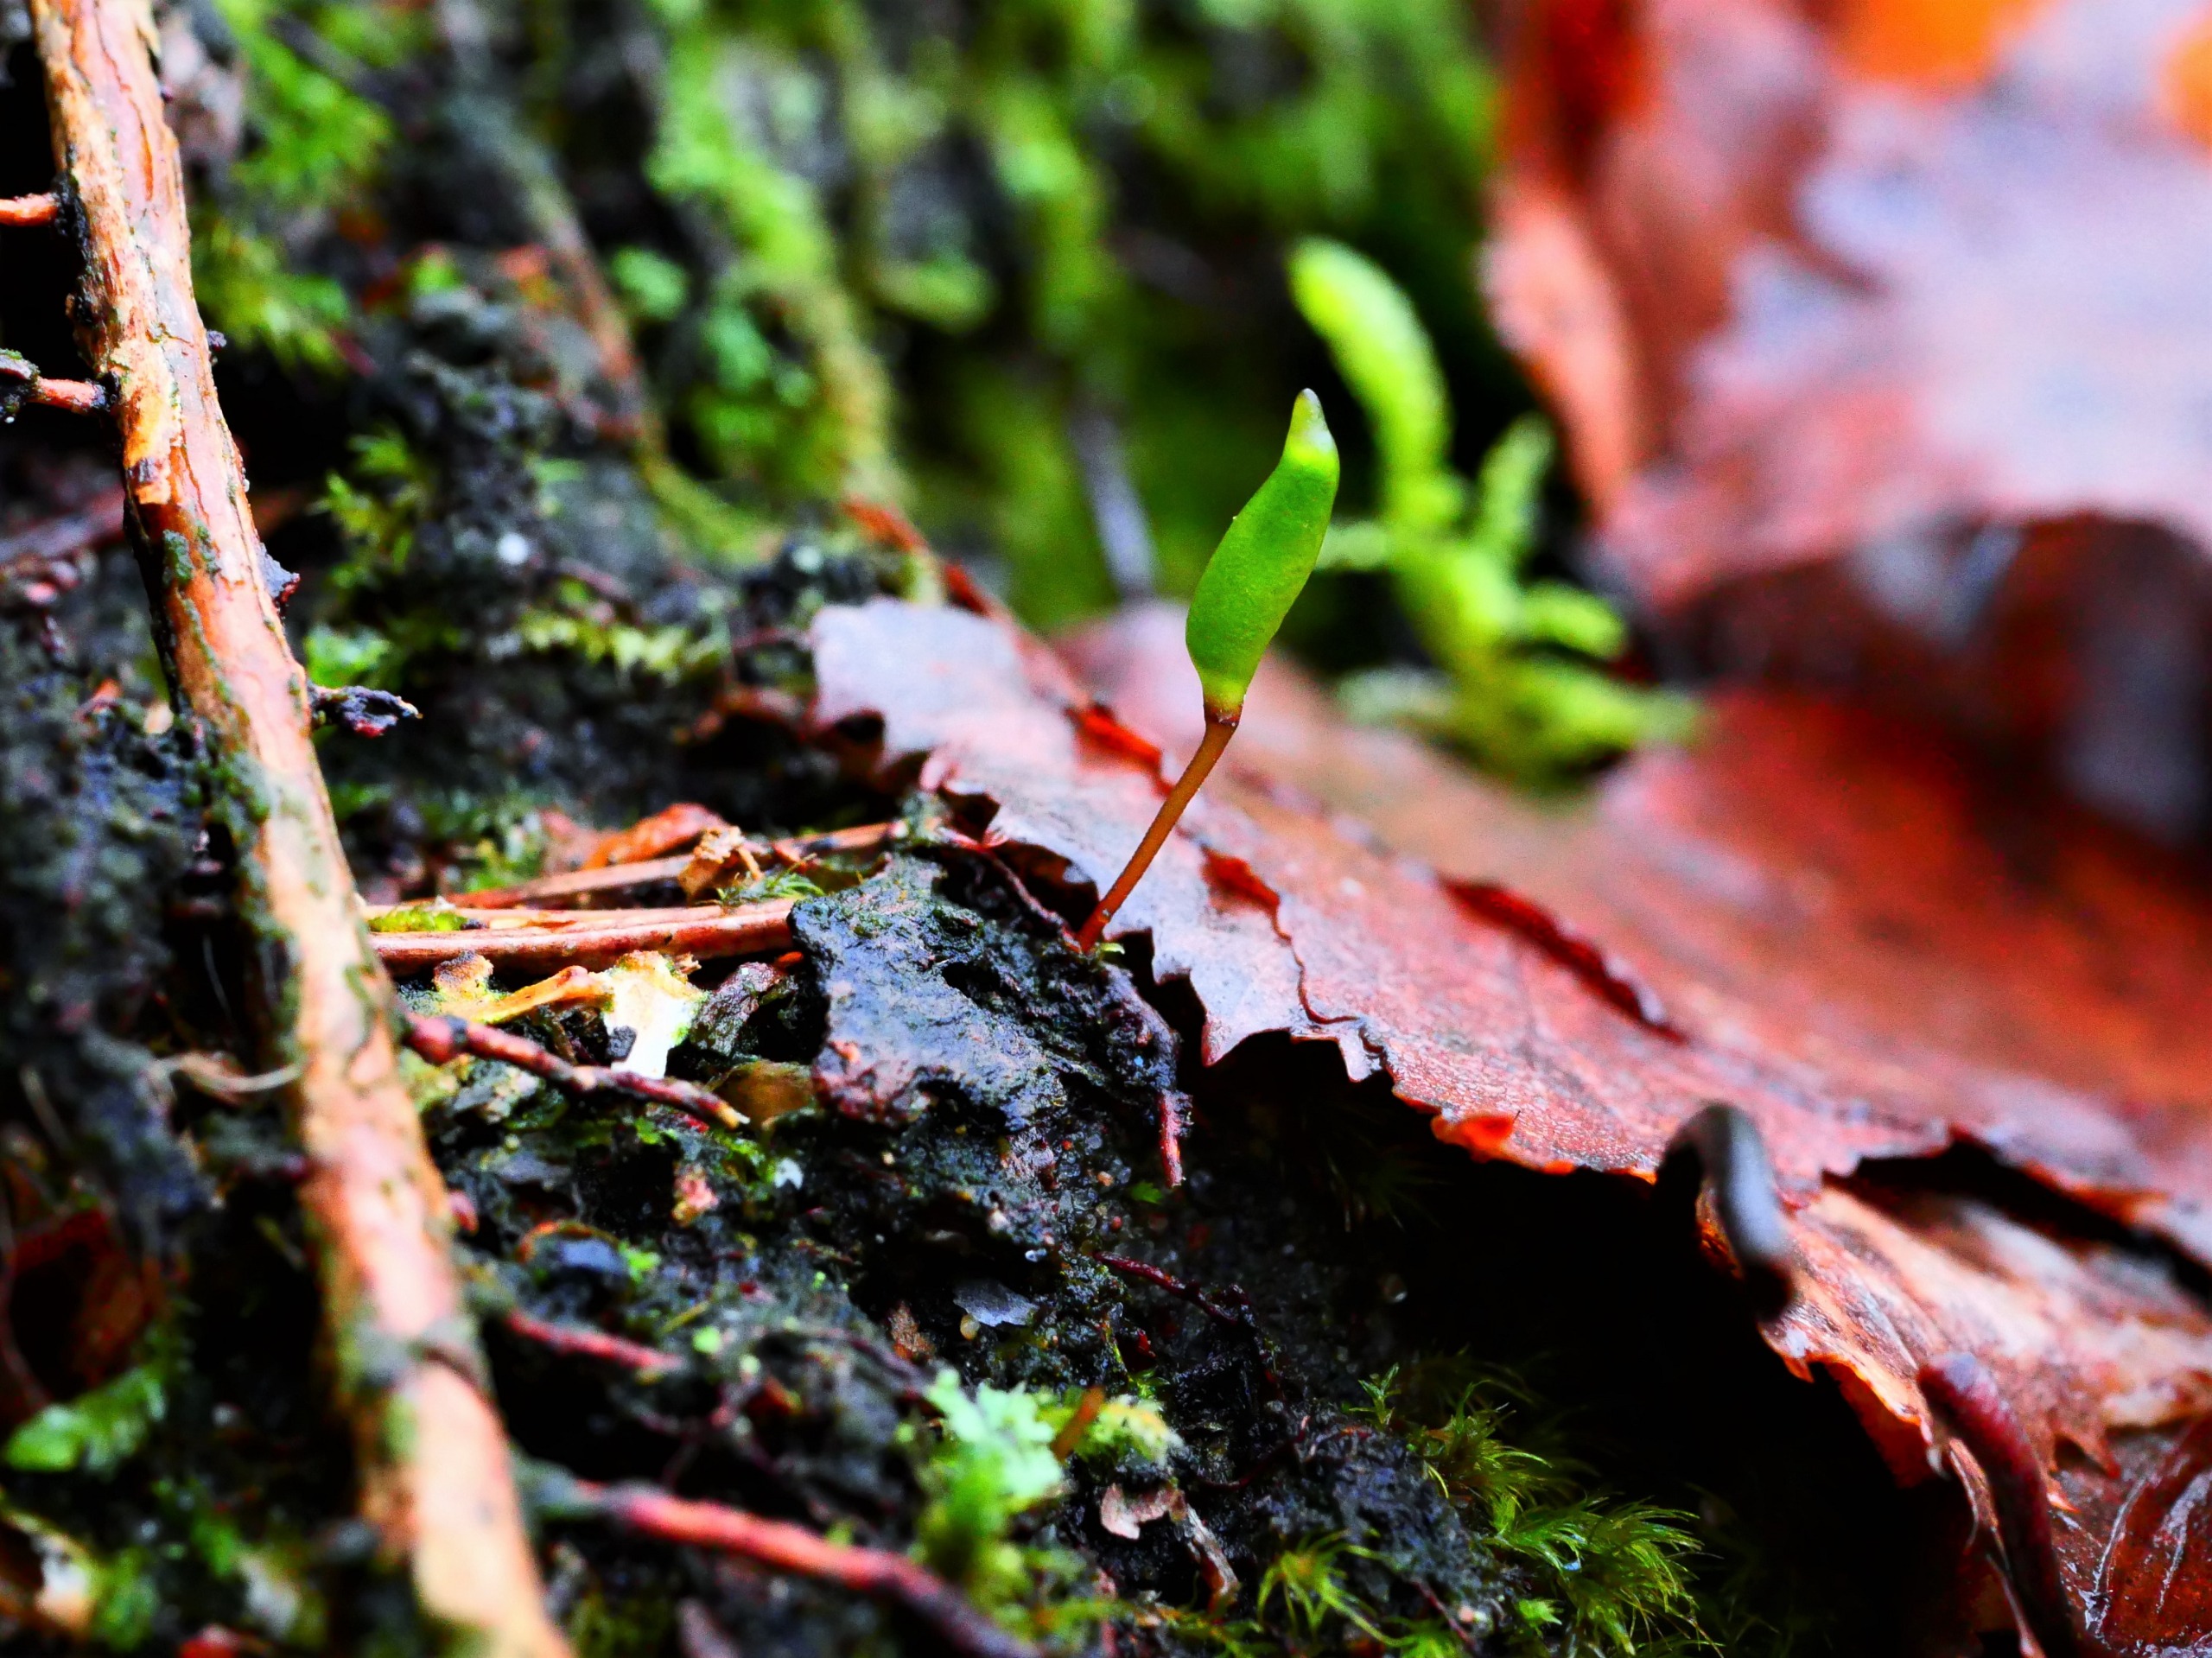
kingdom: Plantae
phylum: Bryophyta
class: Bryopsida
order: Buxbaumiales
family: Buxbaumiaceae
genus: Buxbaumia
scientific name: Buxbaumia viridis
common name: Grøn buxbaumia
